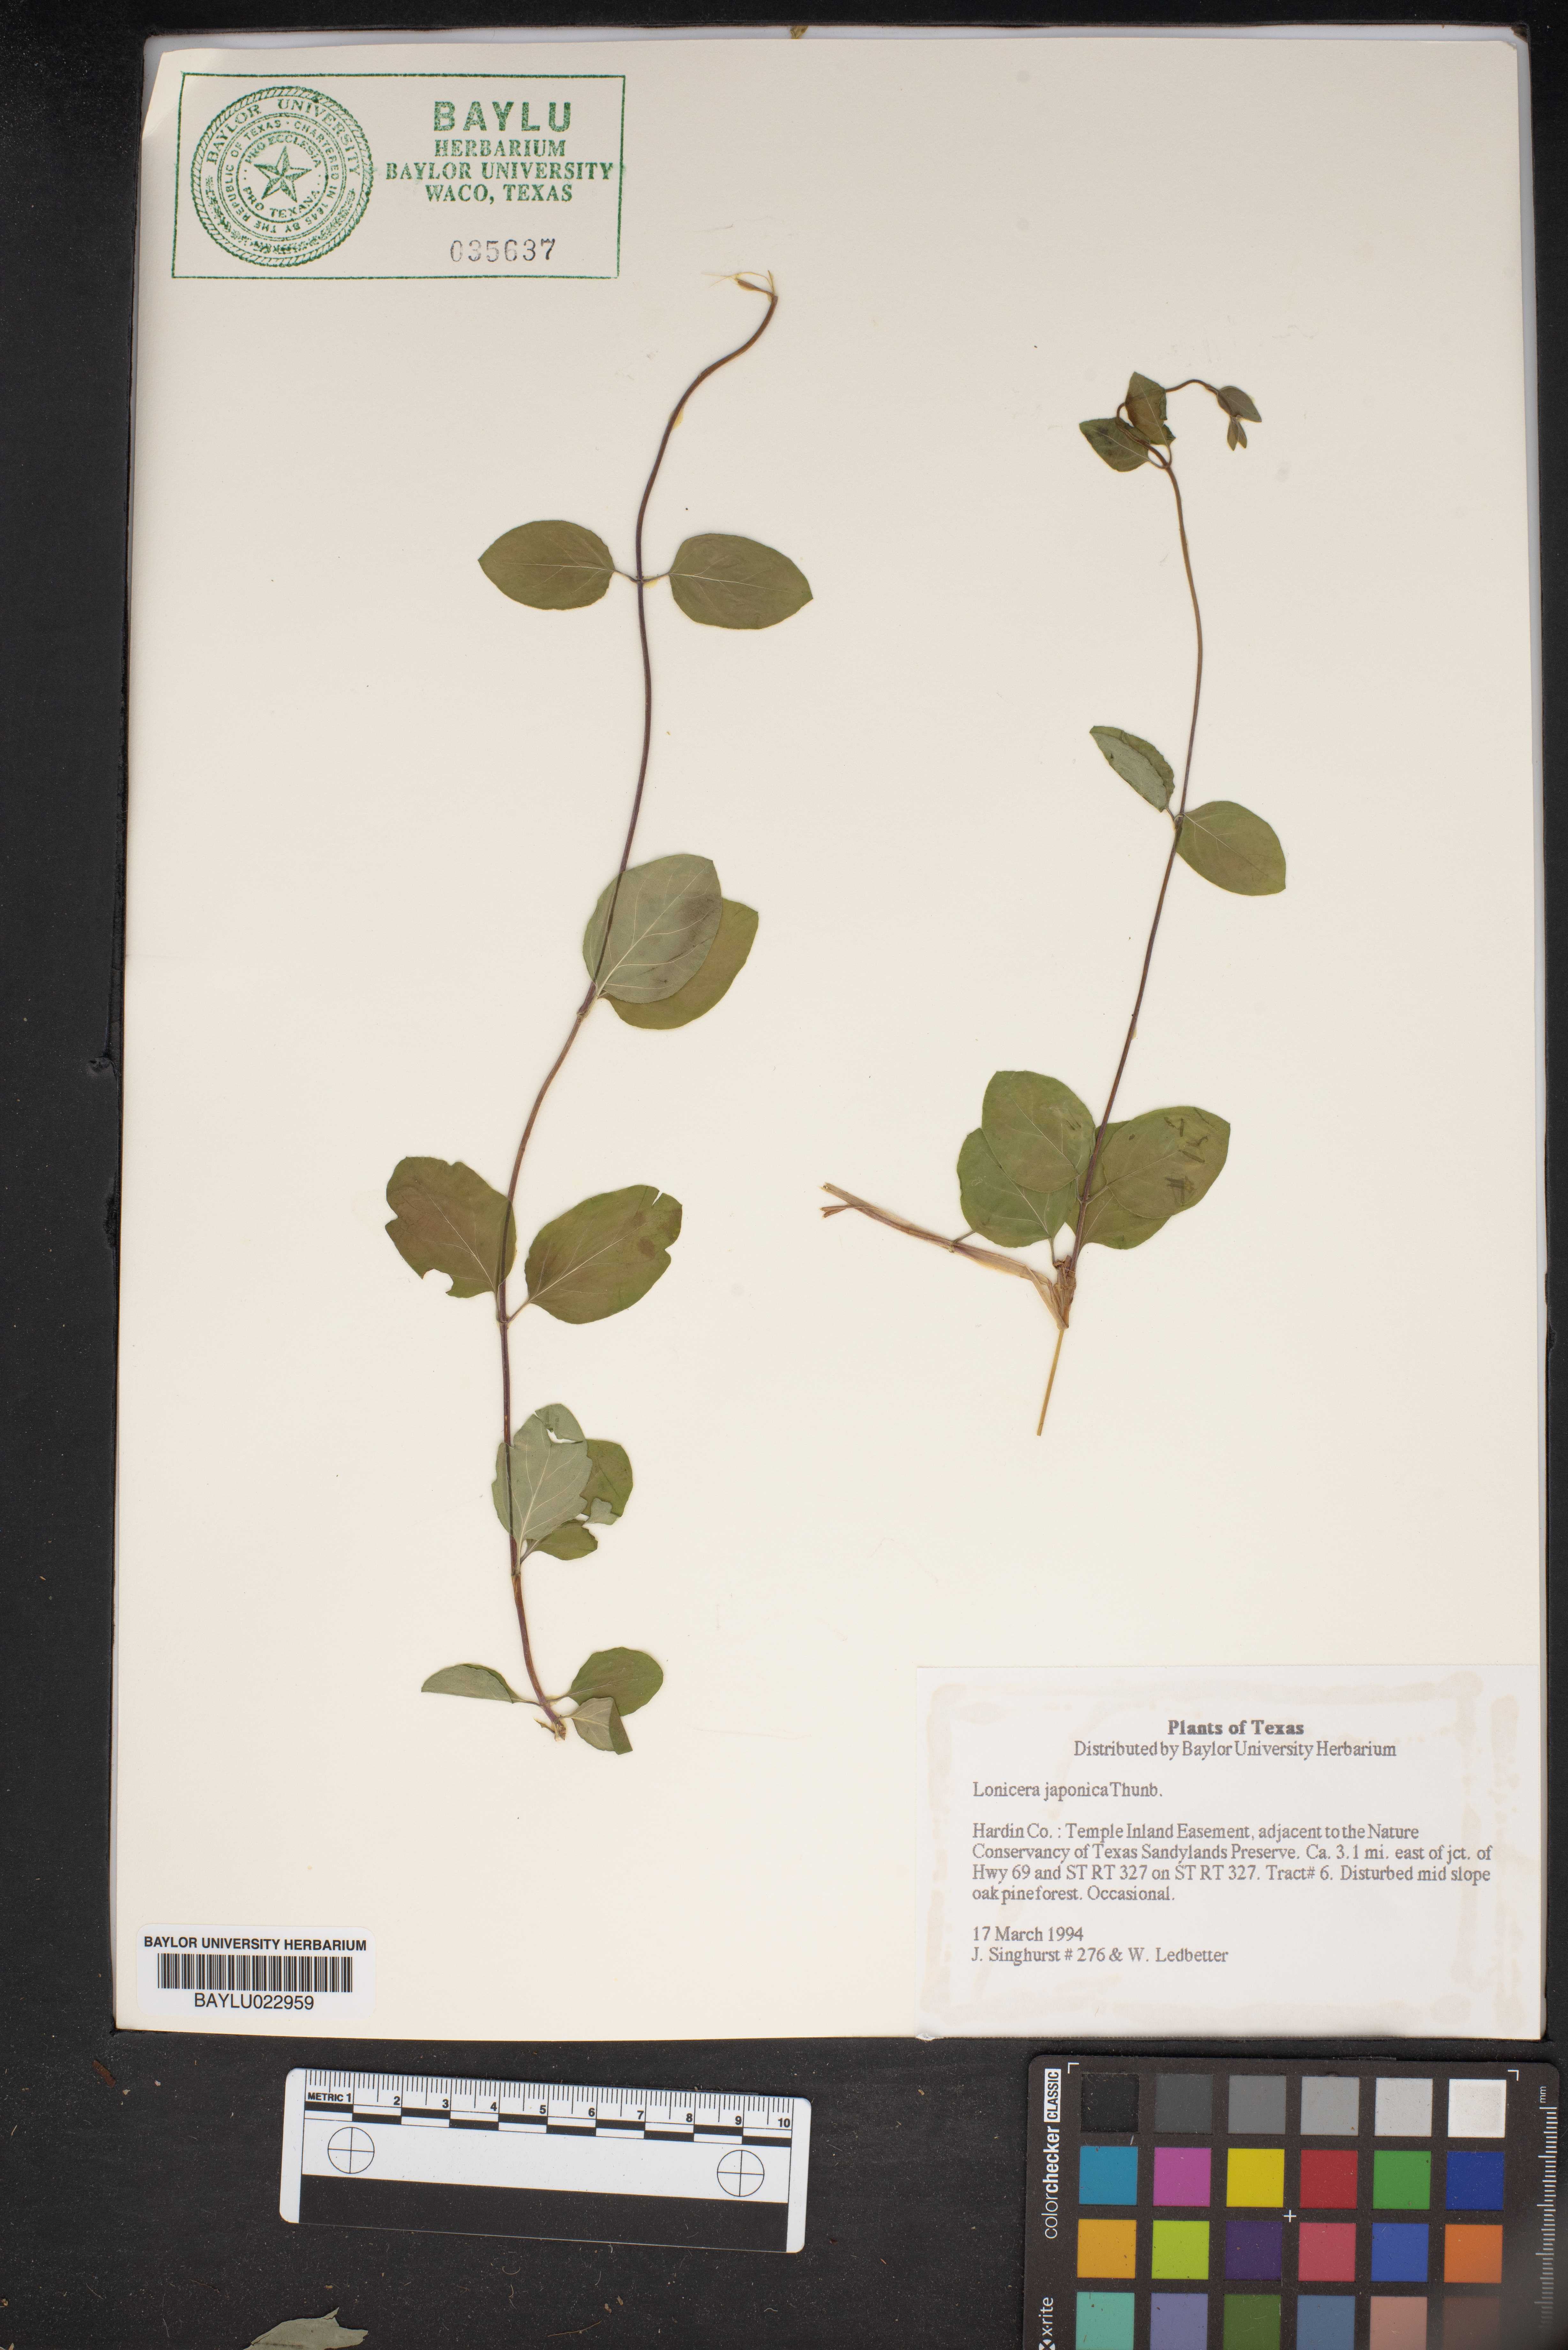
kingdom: Plantae
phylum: Tracheophyta
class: Magnoliopsida
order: Dipsacales
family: Caprifoliaceae
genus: Lonicera
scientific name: Lonicera japonica
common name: Japanese honeysuckle
